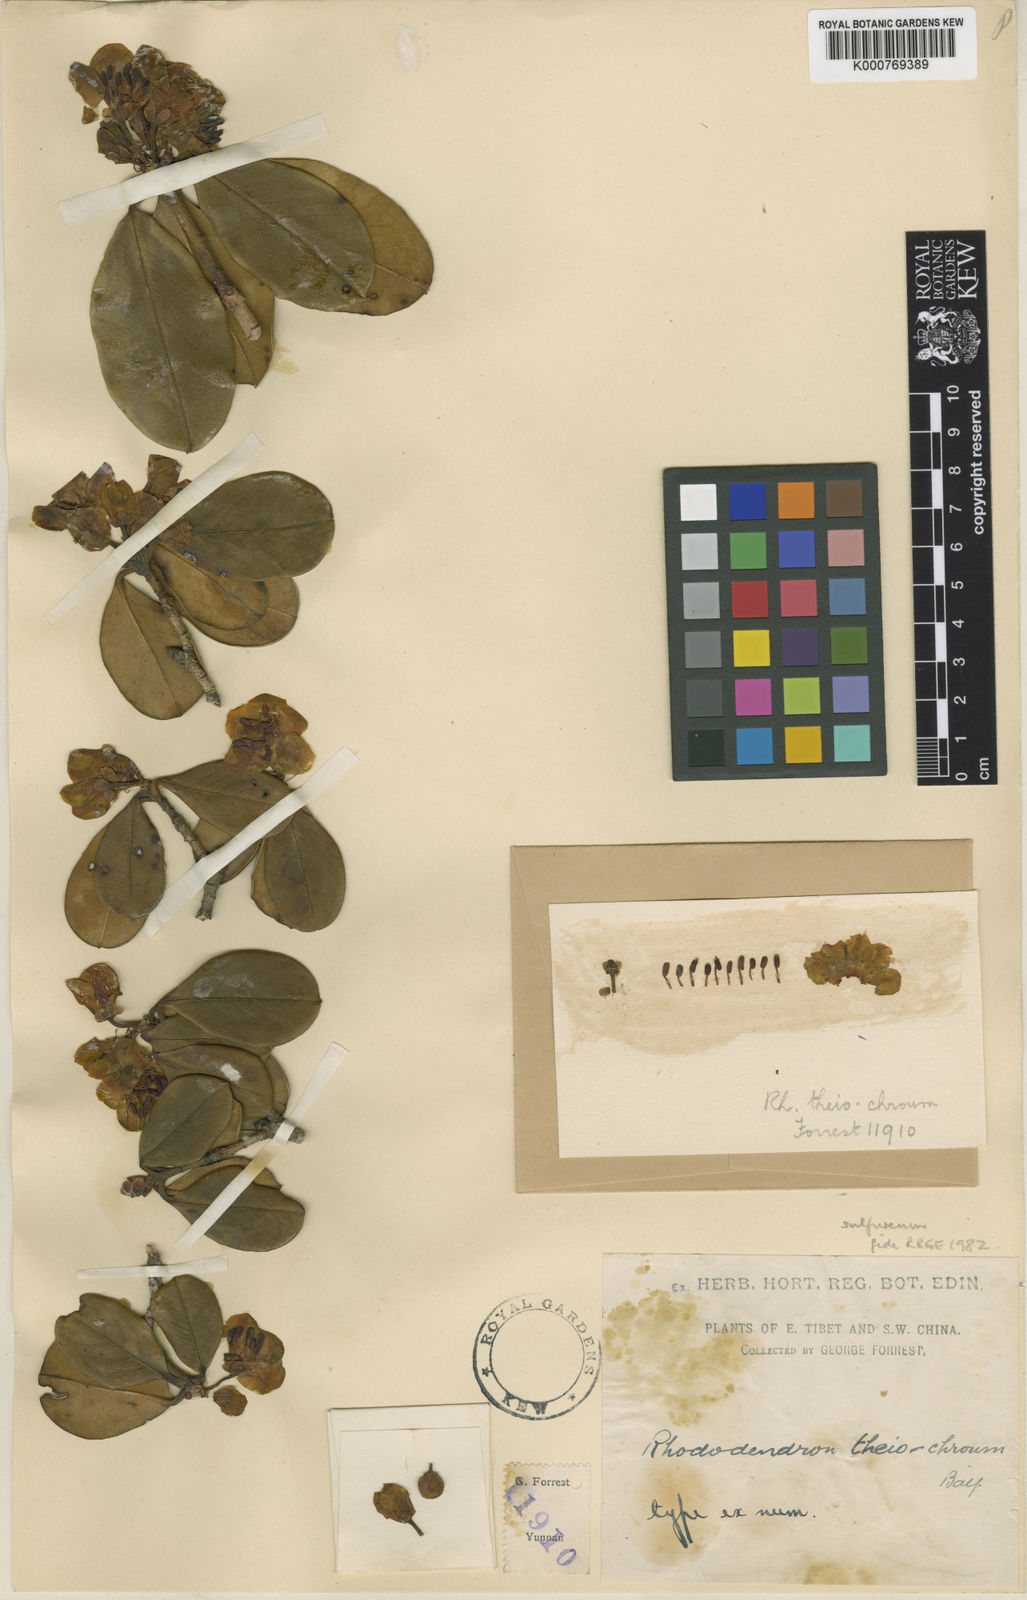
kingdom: Plantae
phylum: Tracheophyta
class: Magnoliopsida
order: Ericales
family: Ericaceae
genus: Rhododendron
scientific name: Rhododendron sulfureum
